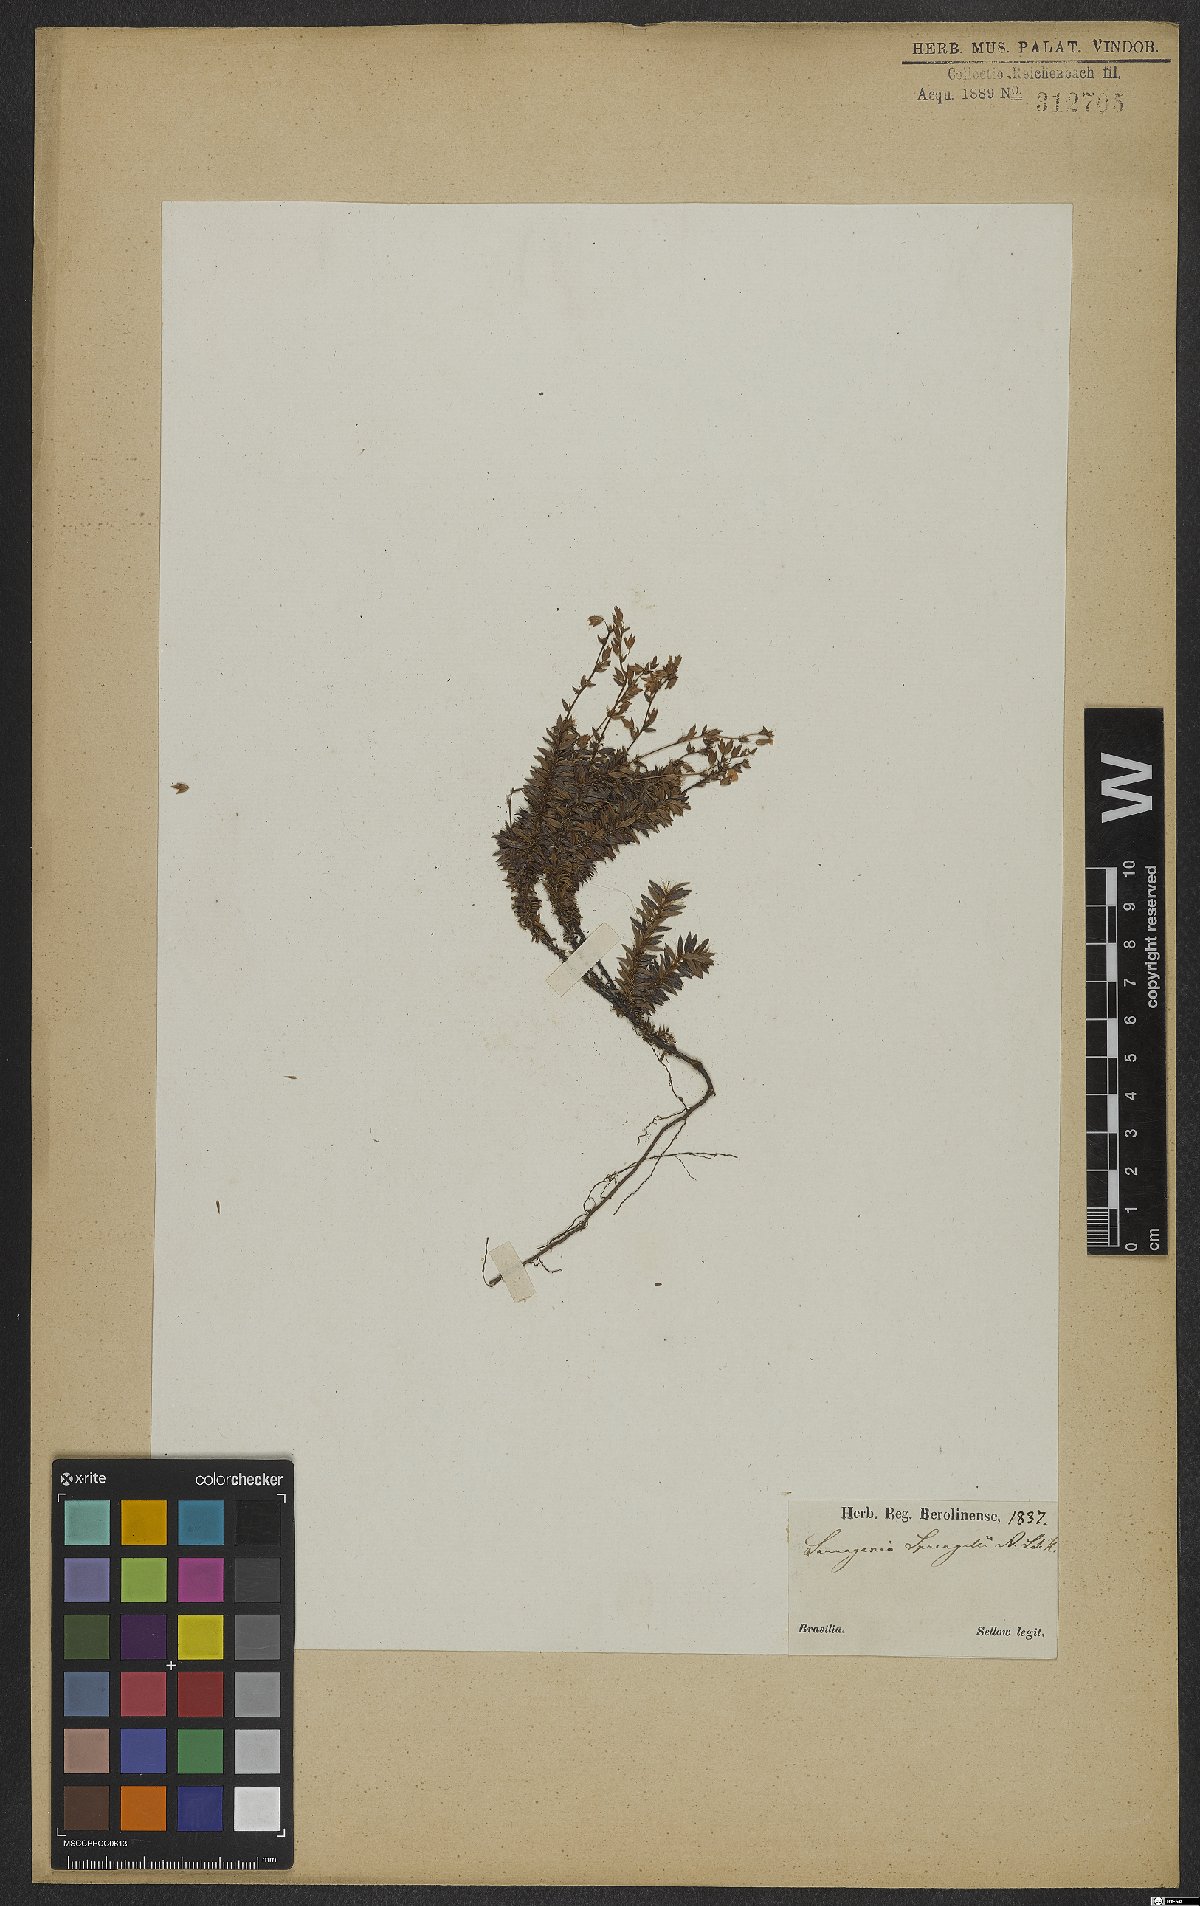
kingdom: Plantae
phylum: Tracheophyta
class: Magnoliopsida
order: Malpighiales
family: Ochnaceae
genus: Sauvagesia
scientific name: Sauvagesia tenella
